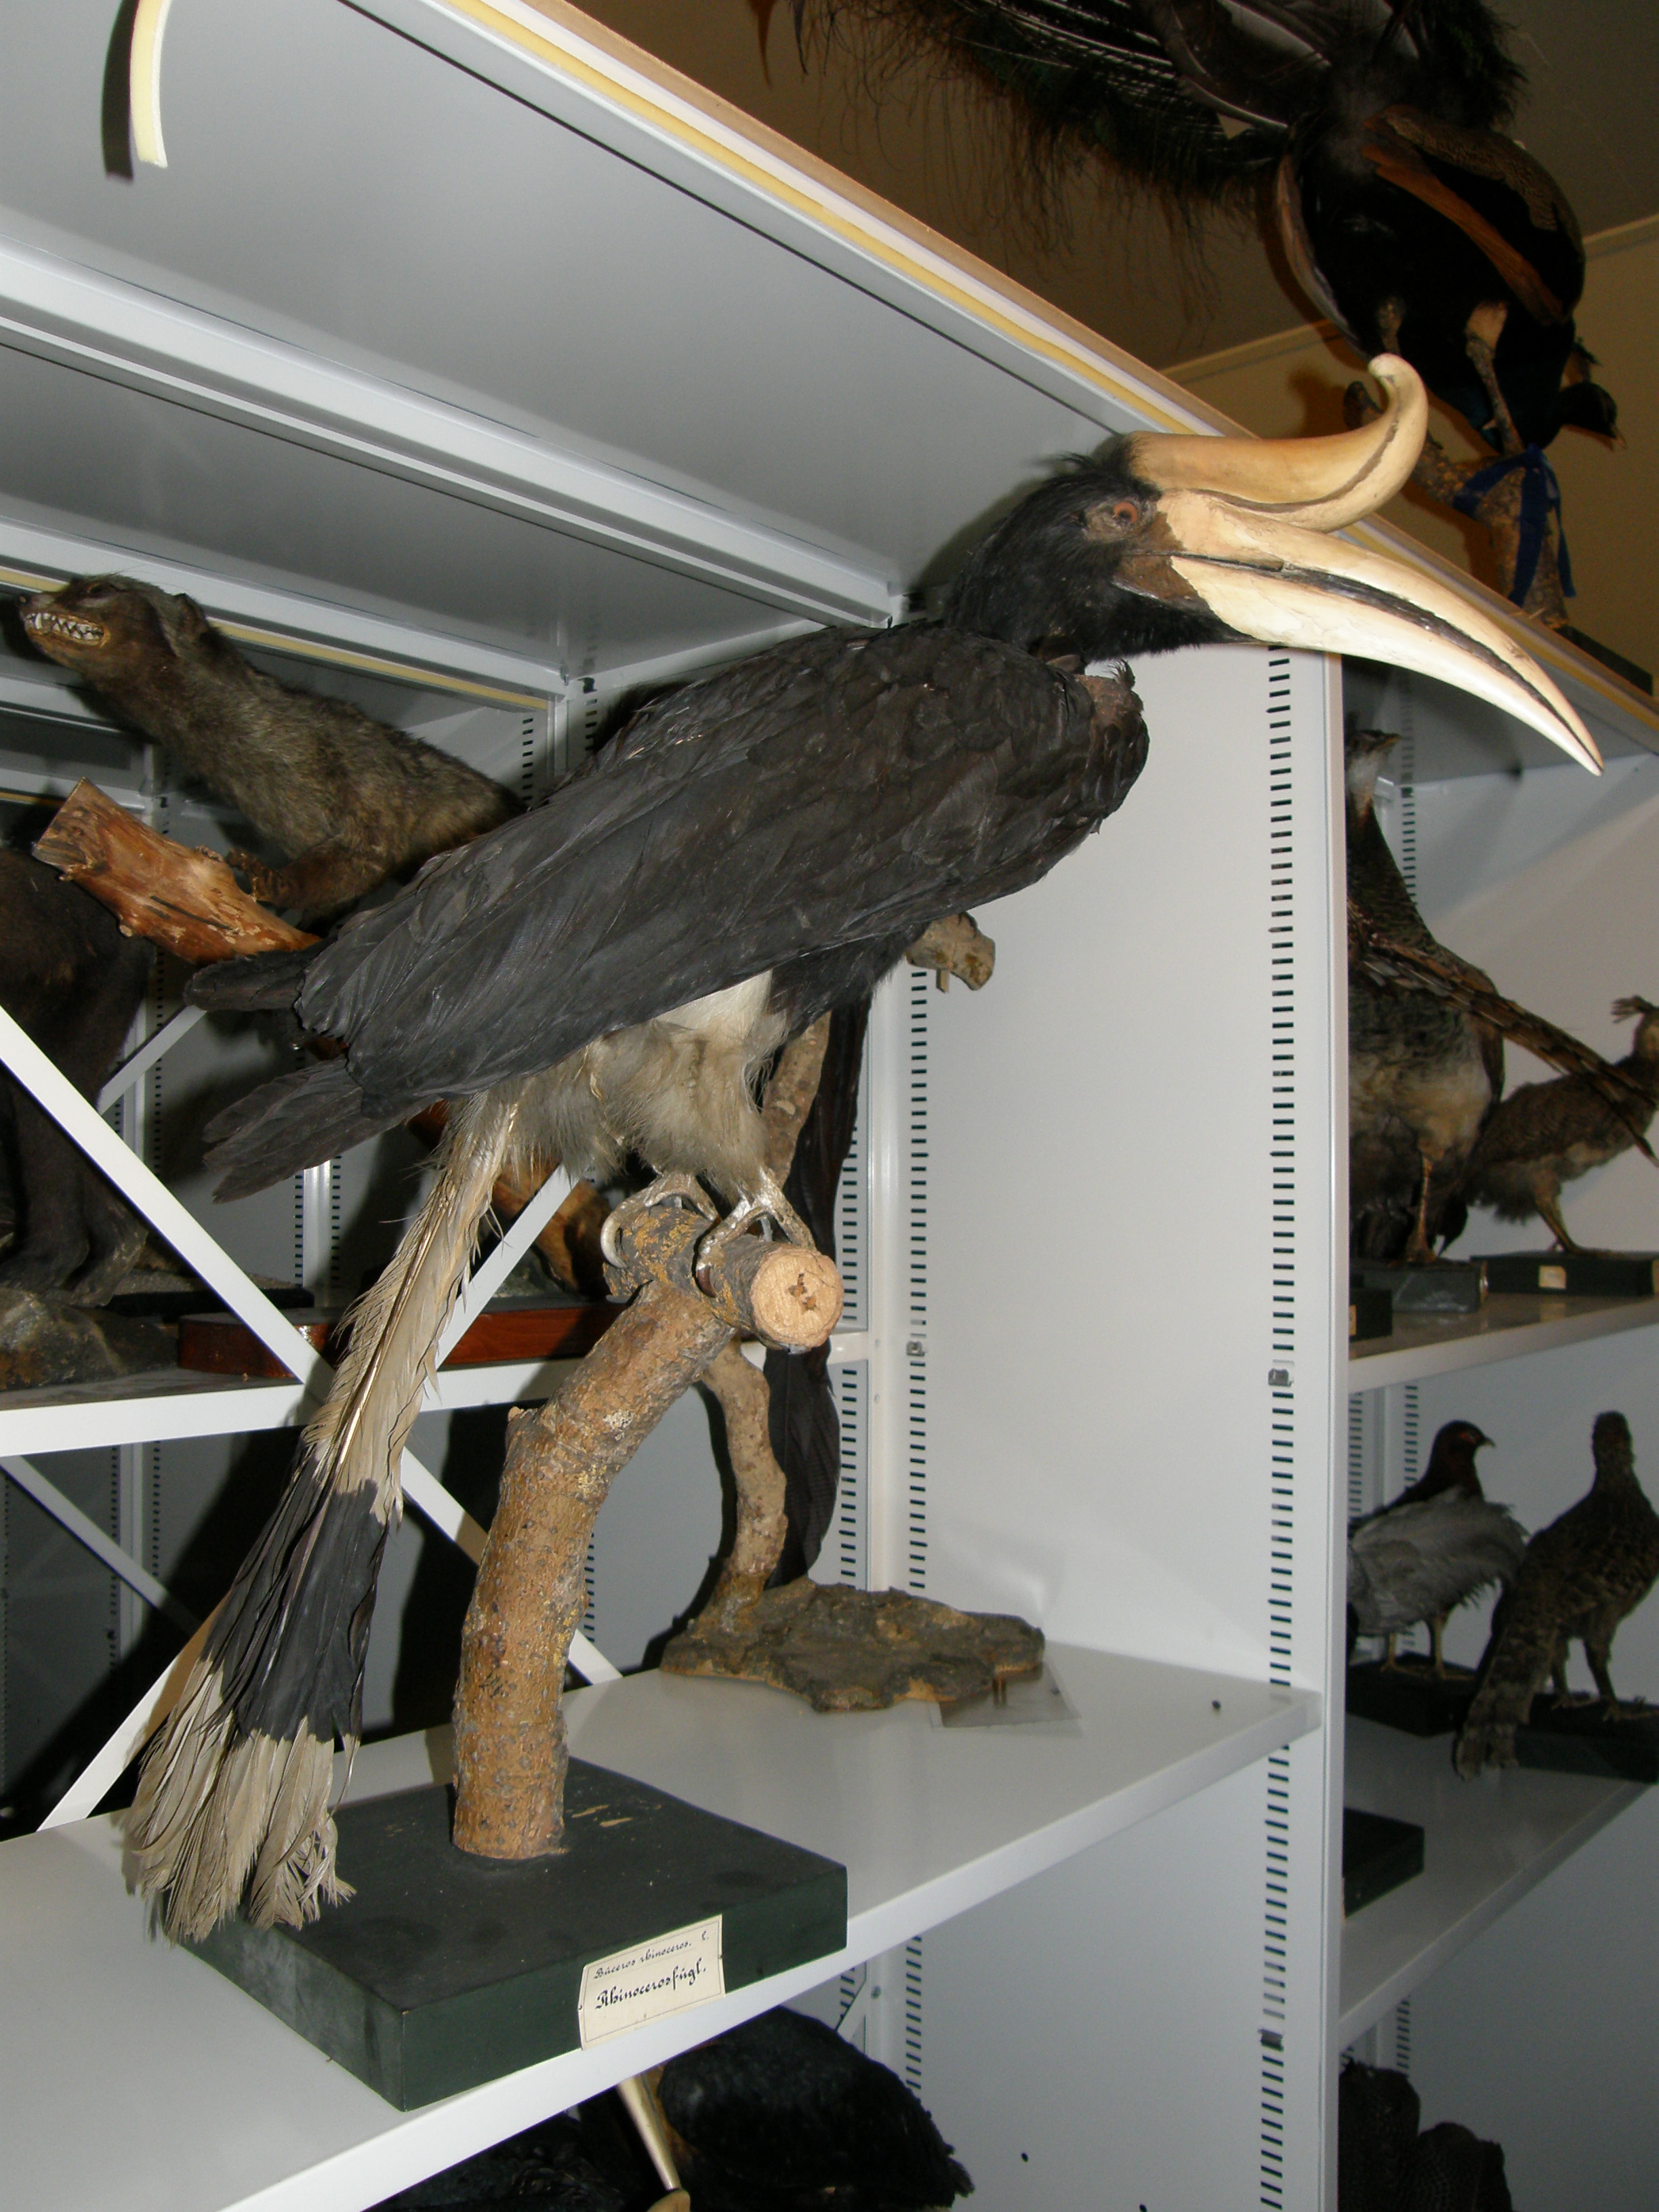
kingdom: Animalia
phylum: Chordata
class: Aves
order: Bucerotiformes
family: Bucerotidae
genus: Buceros
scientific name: Buceros rhinoceros
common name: Rhinoceros hornbill
